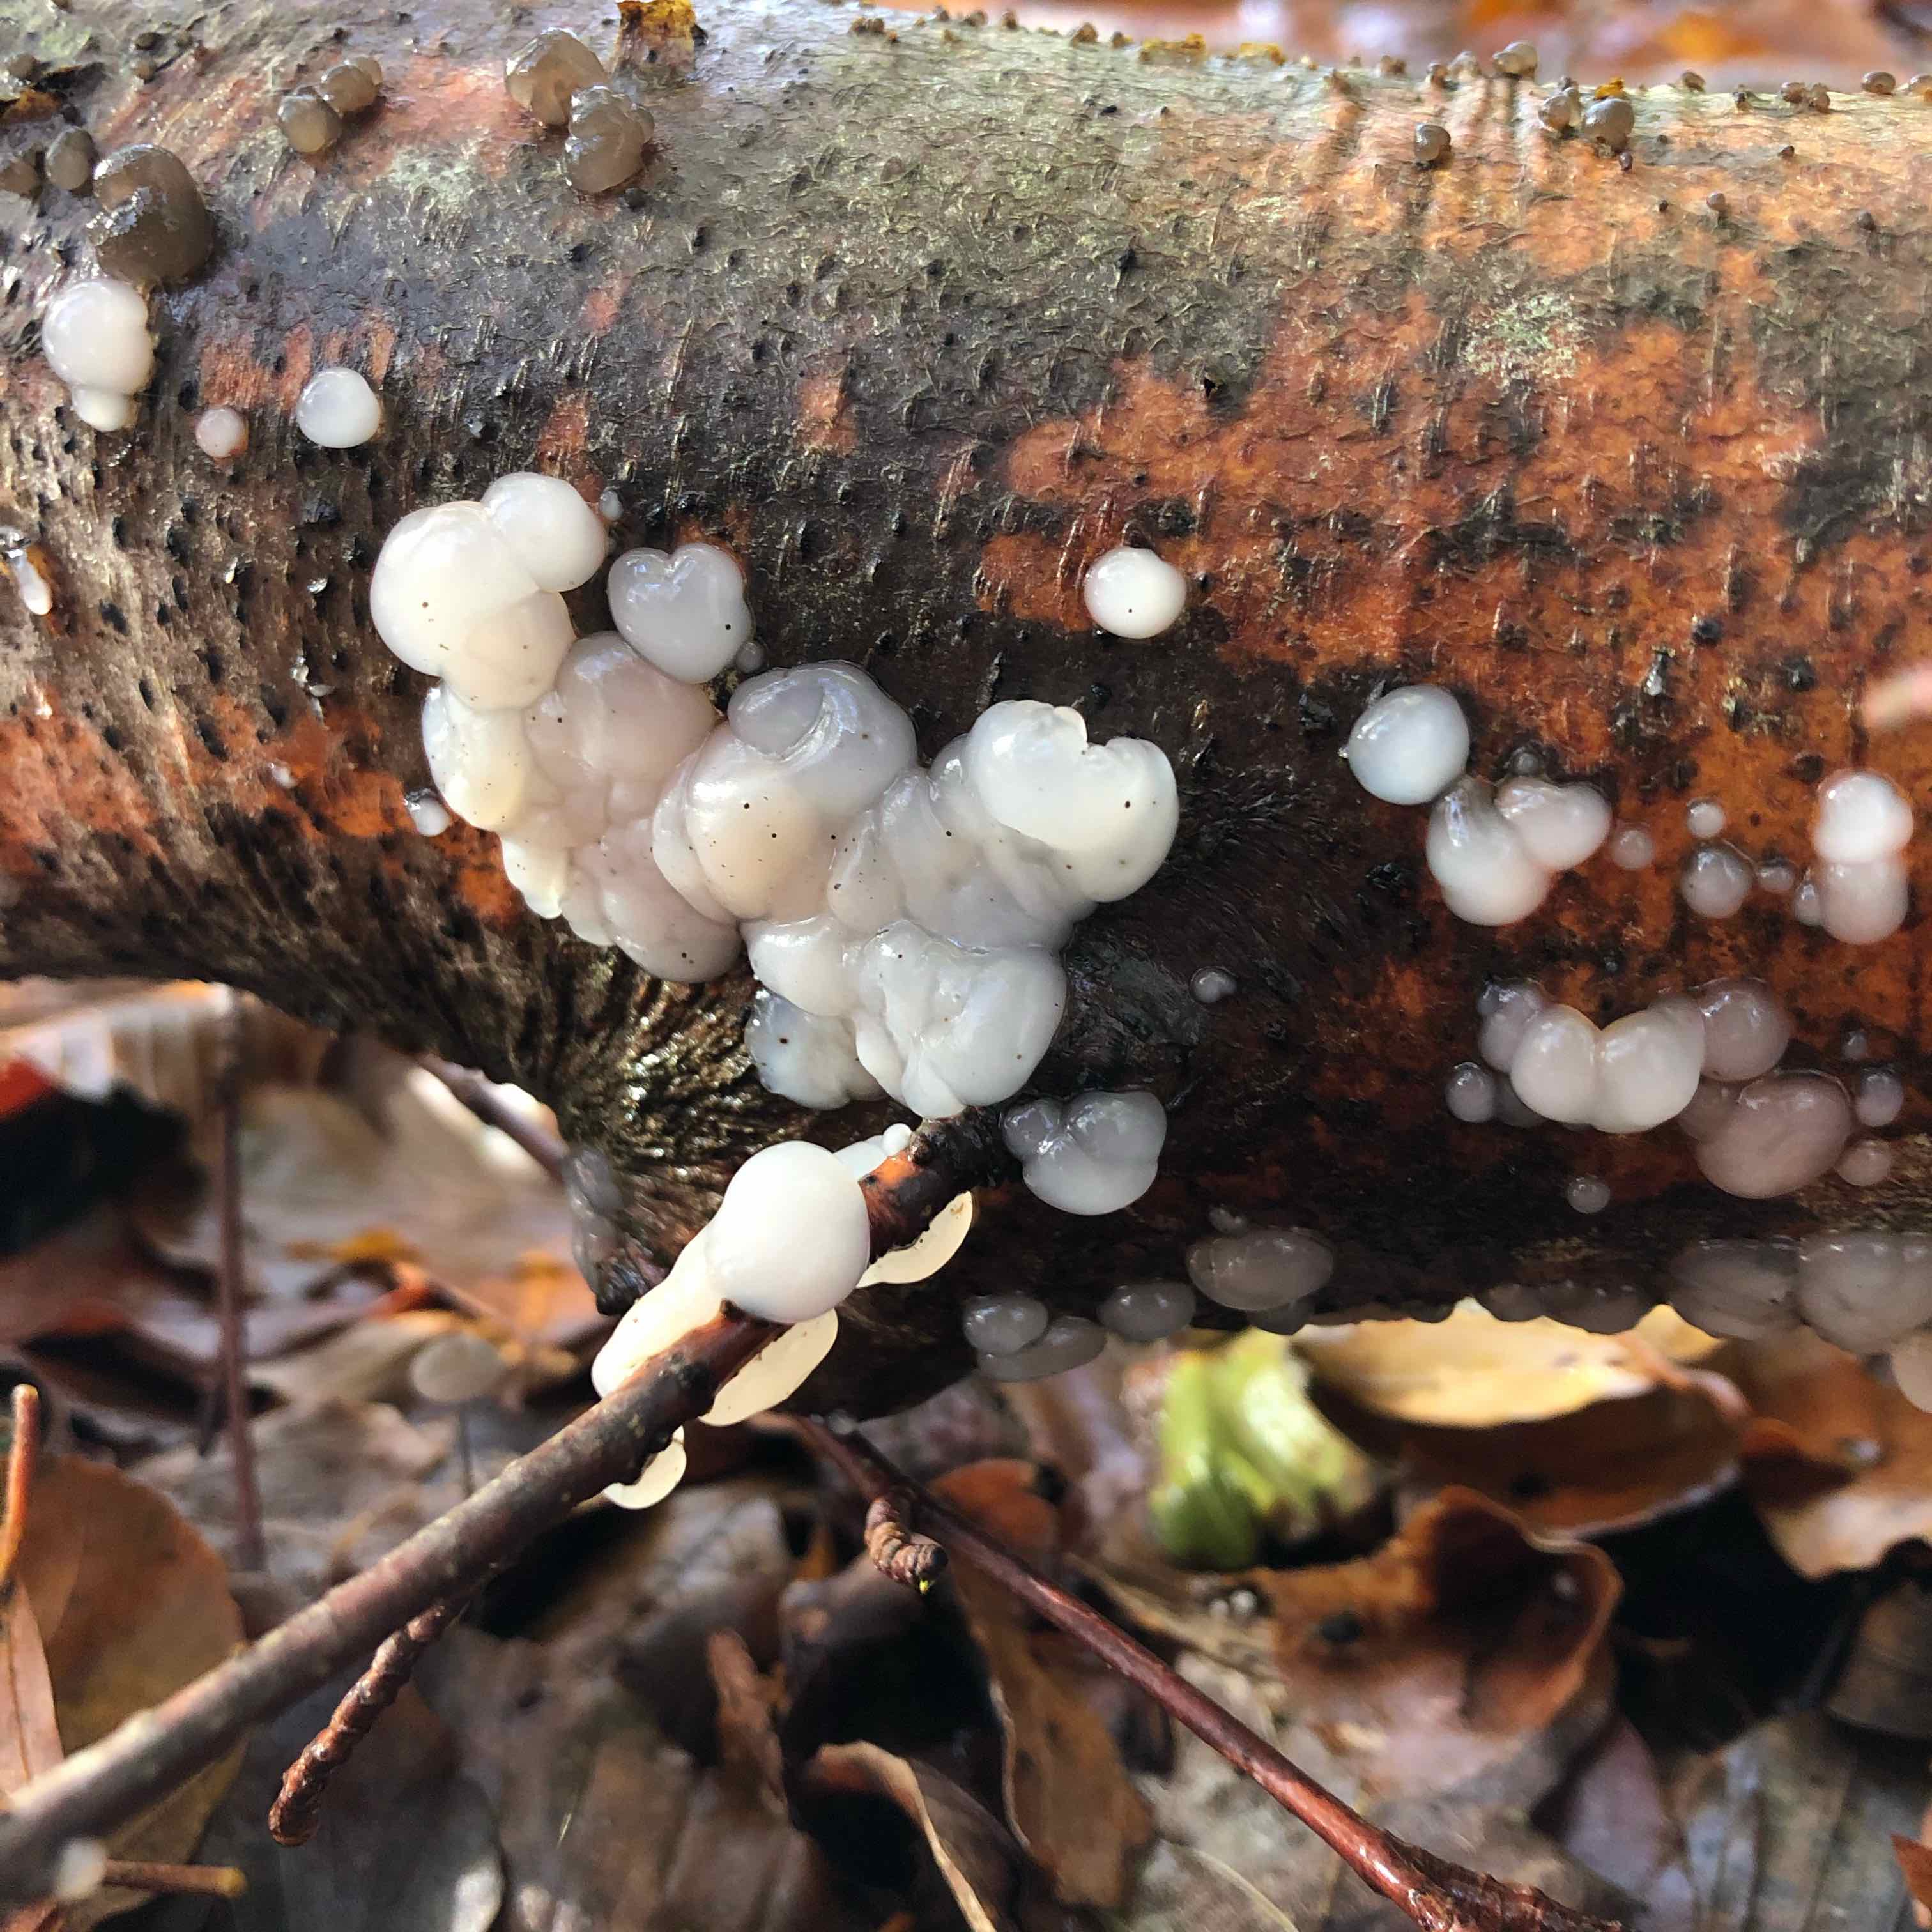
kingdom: Fungi
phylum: Basidiomycota
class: Tremellomycetes
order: Tremellales
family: Exidiaceae
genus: Exidia
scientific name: Exidia
